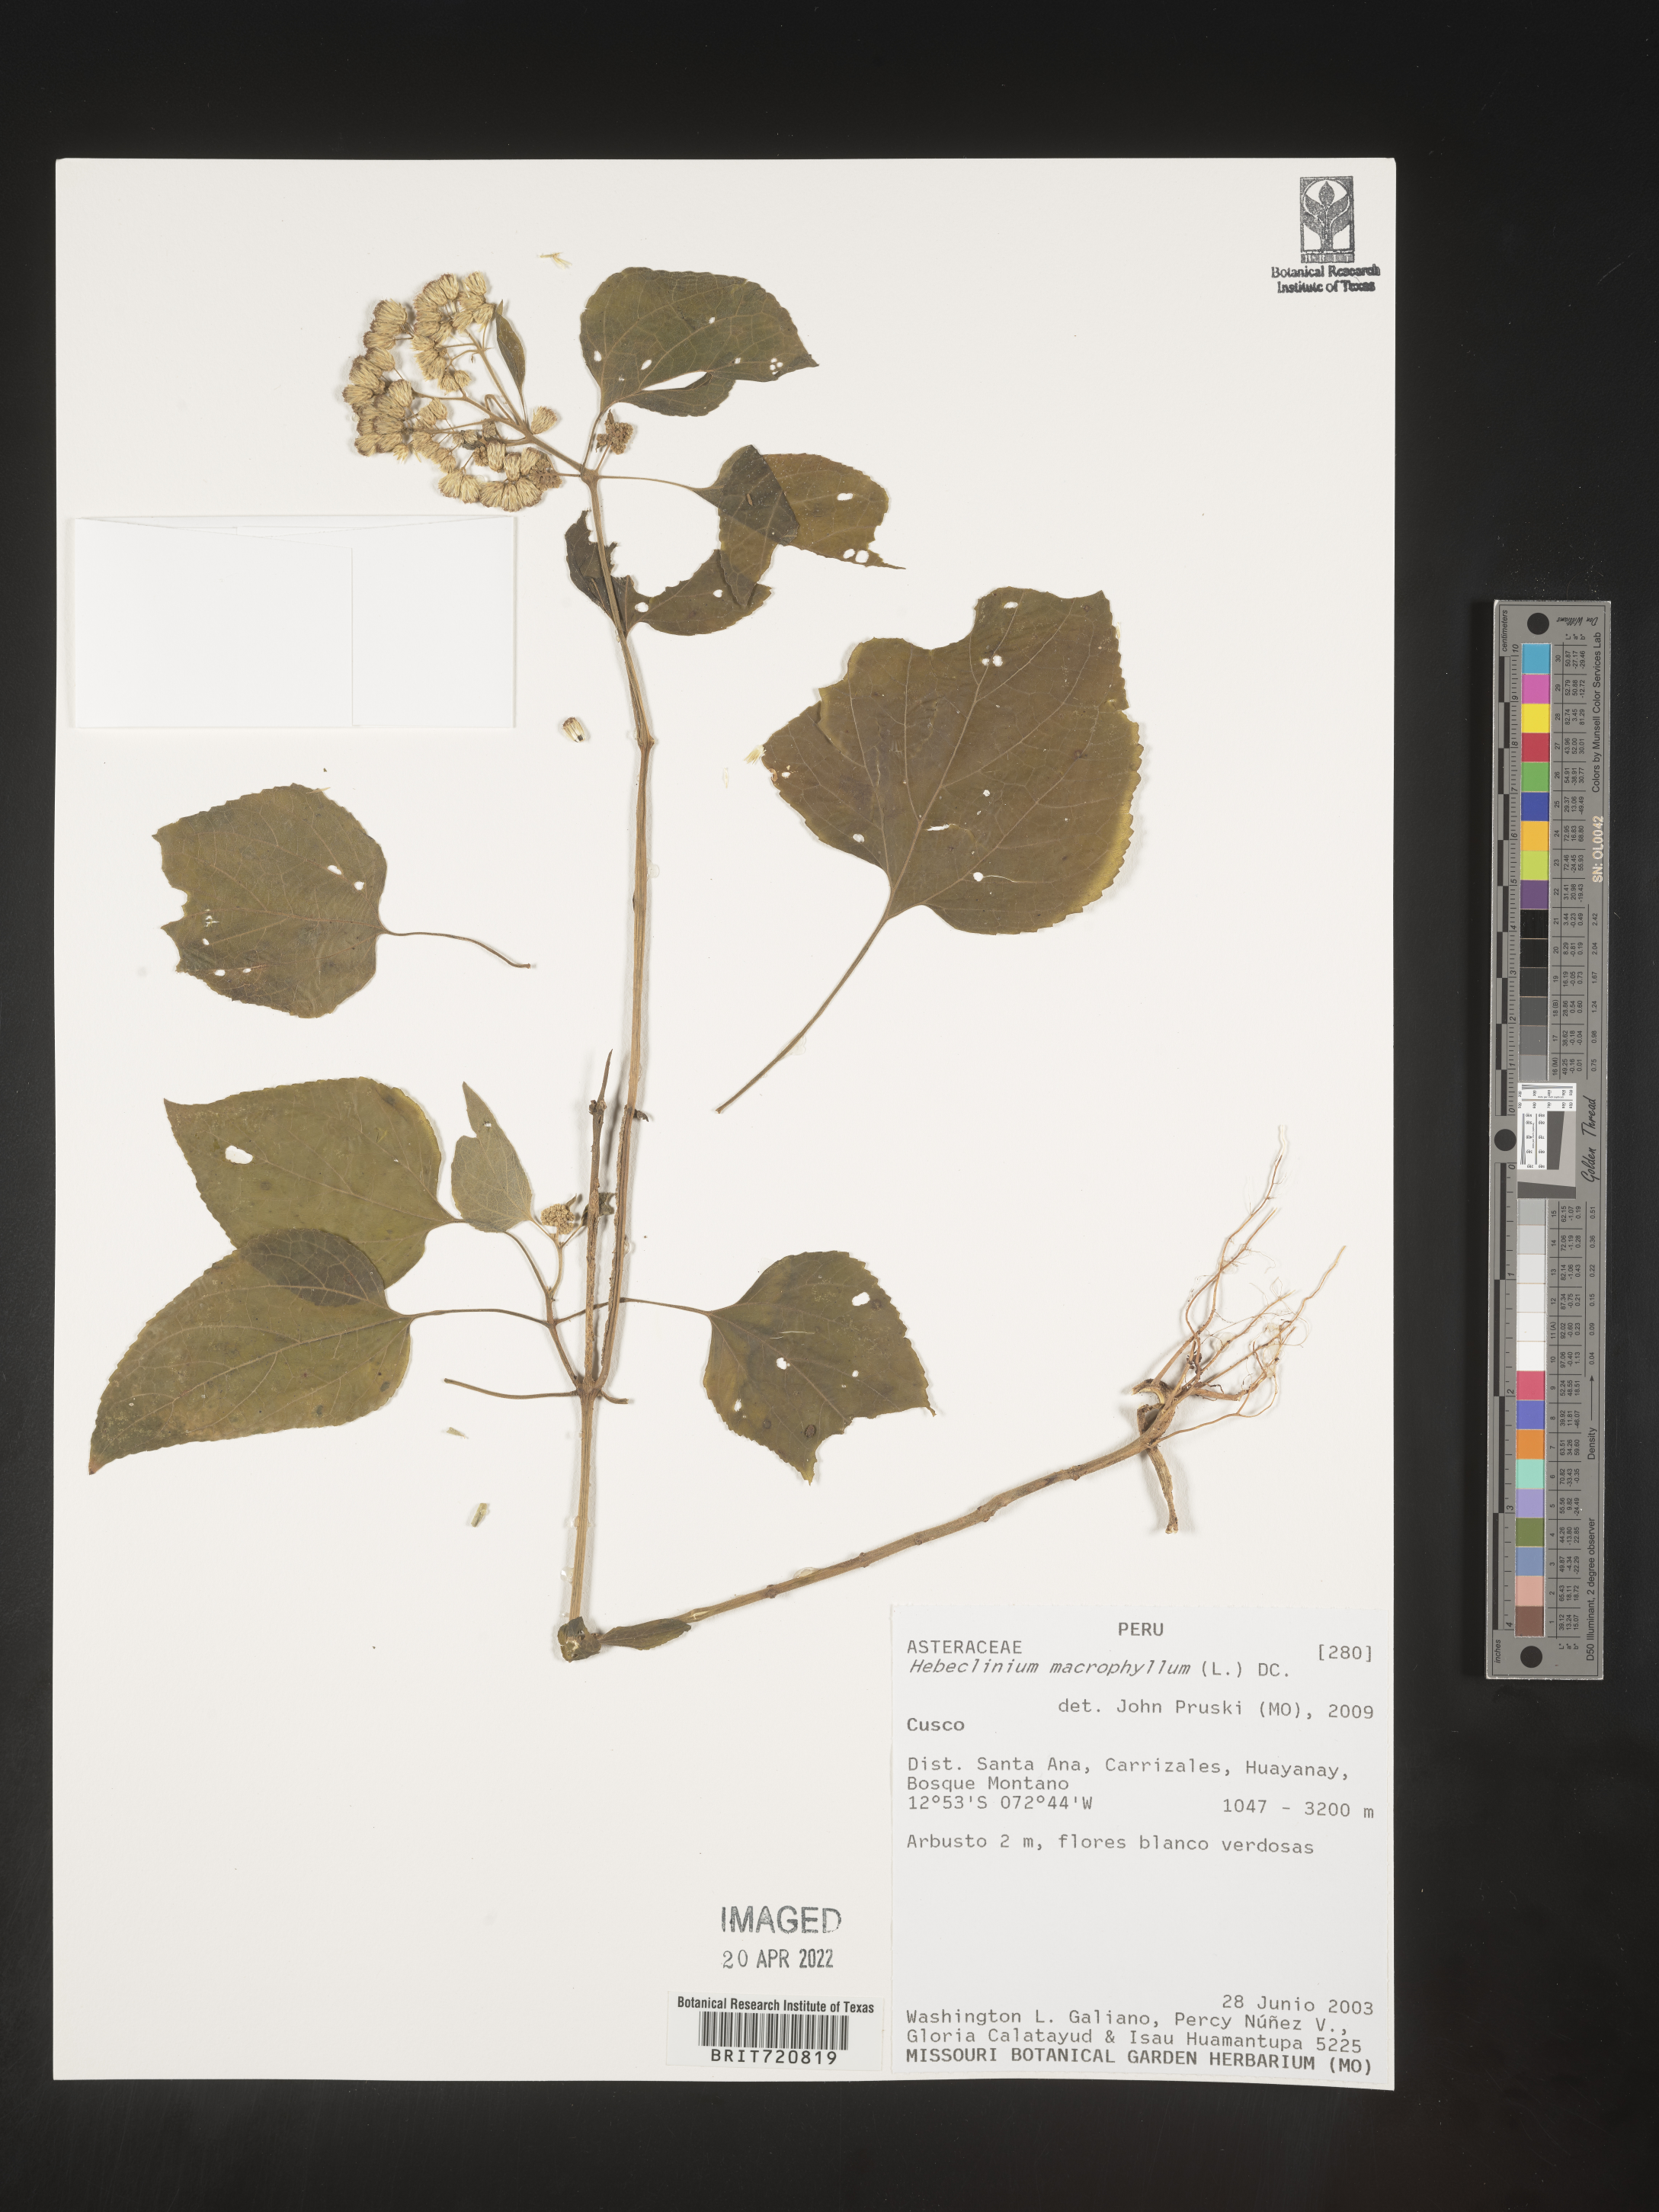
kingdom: Plantae
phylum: Tracheophyta
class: Magnoliopsida
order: Asterales
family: Asteraceae
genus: Hebeclinium
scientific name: Hebeclinium
